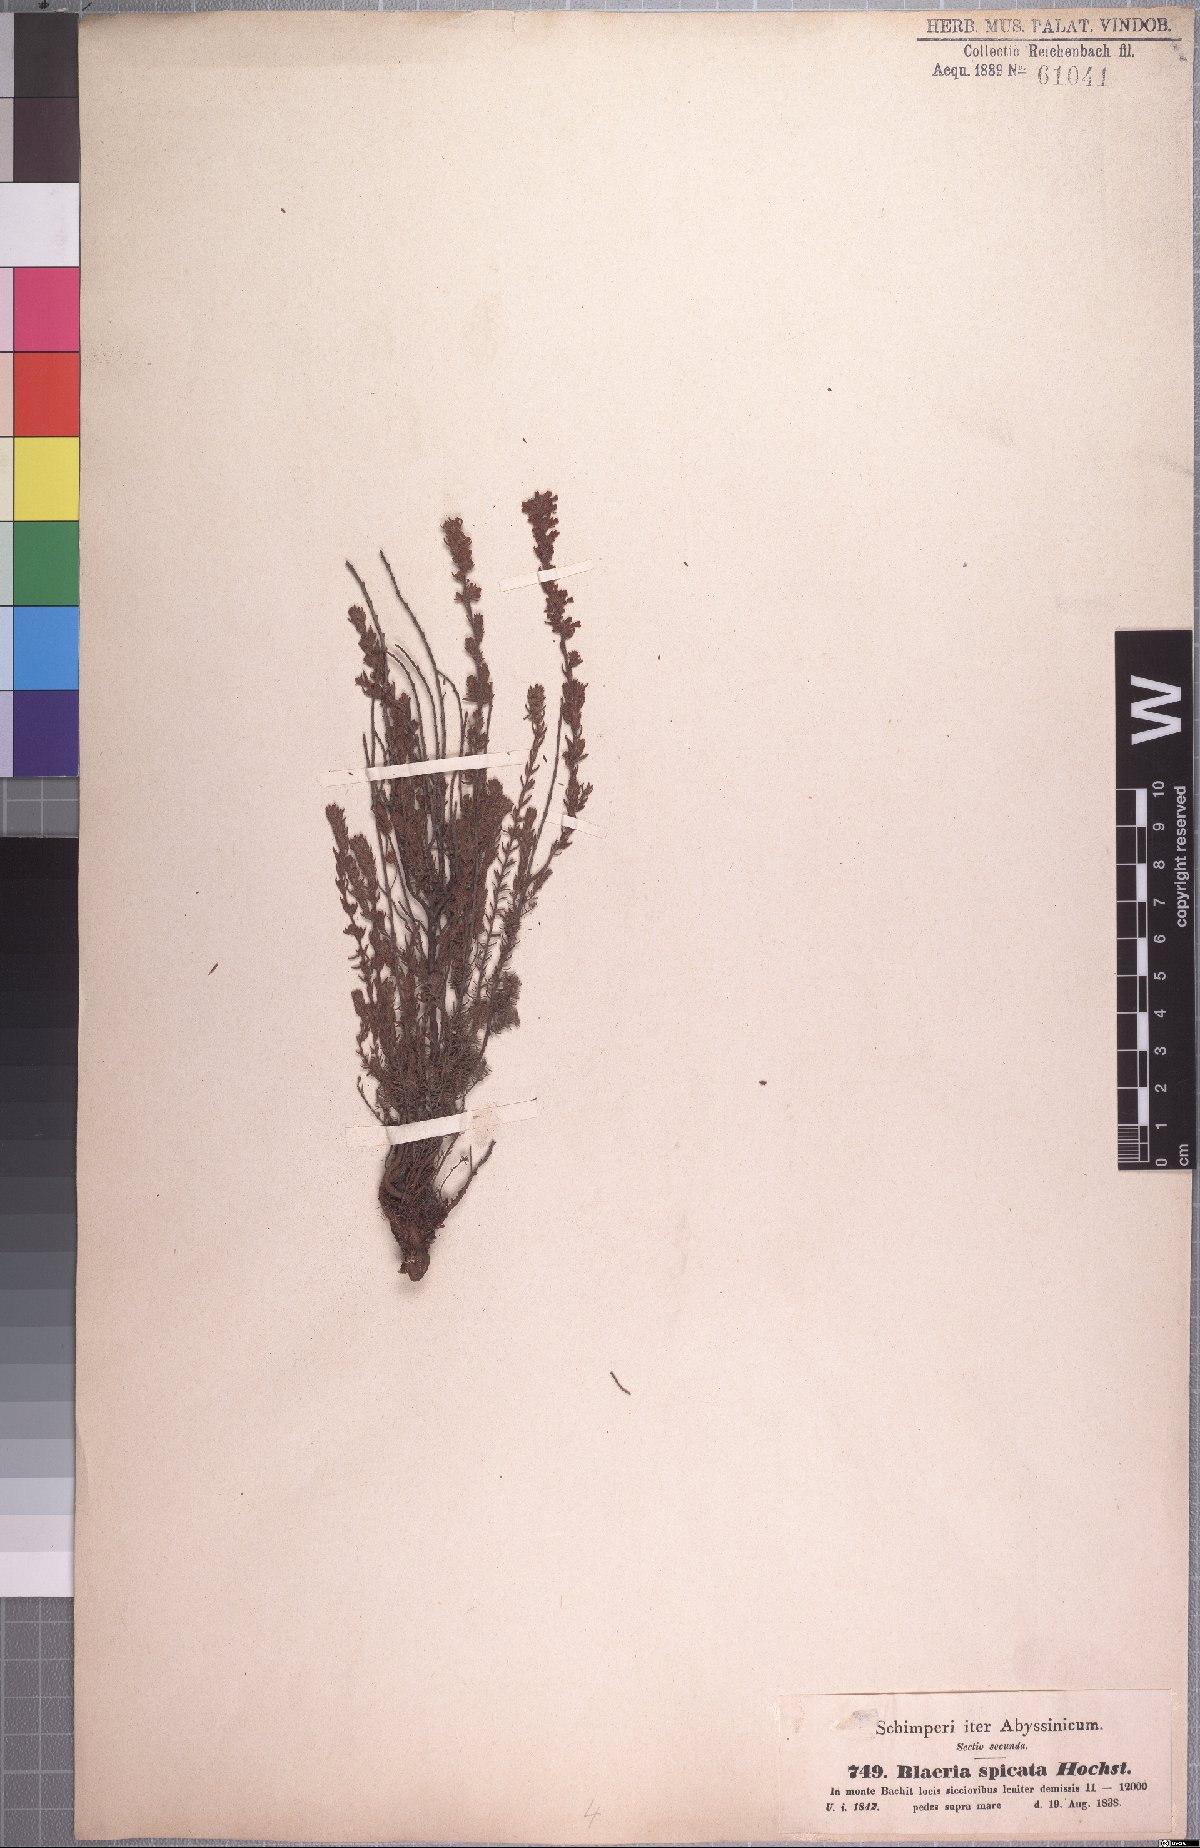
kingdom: Plantae
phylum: Tracheophyta
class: Magnoliopsida
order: Ericales
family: Ericaceae
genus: Erica
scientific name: Erica silvatica
